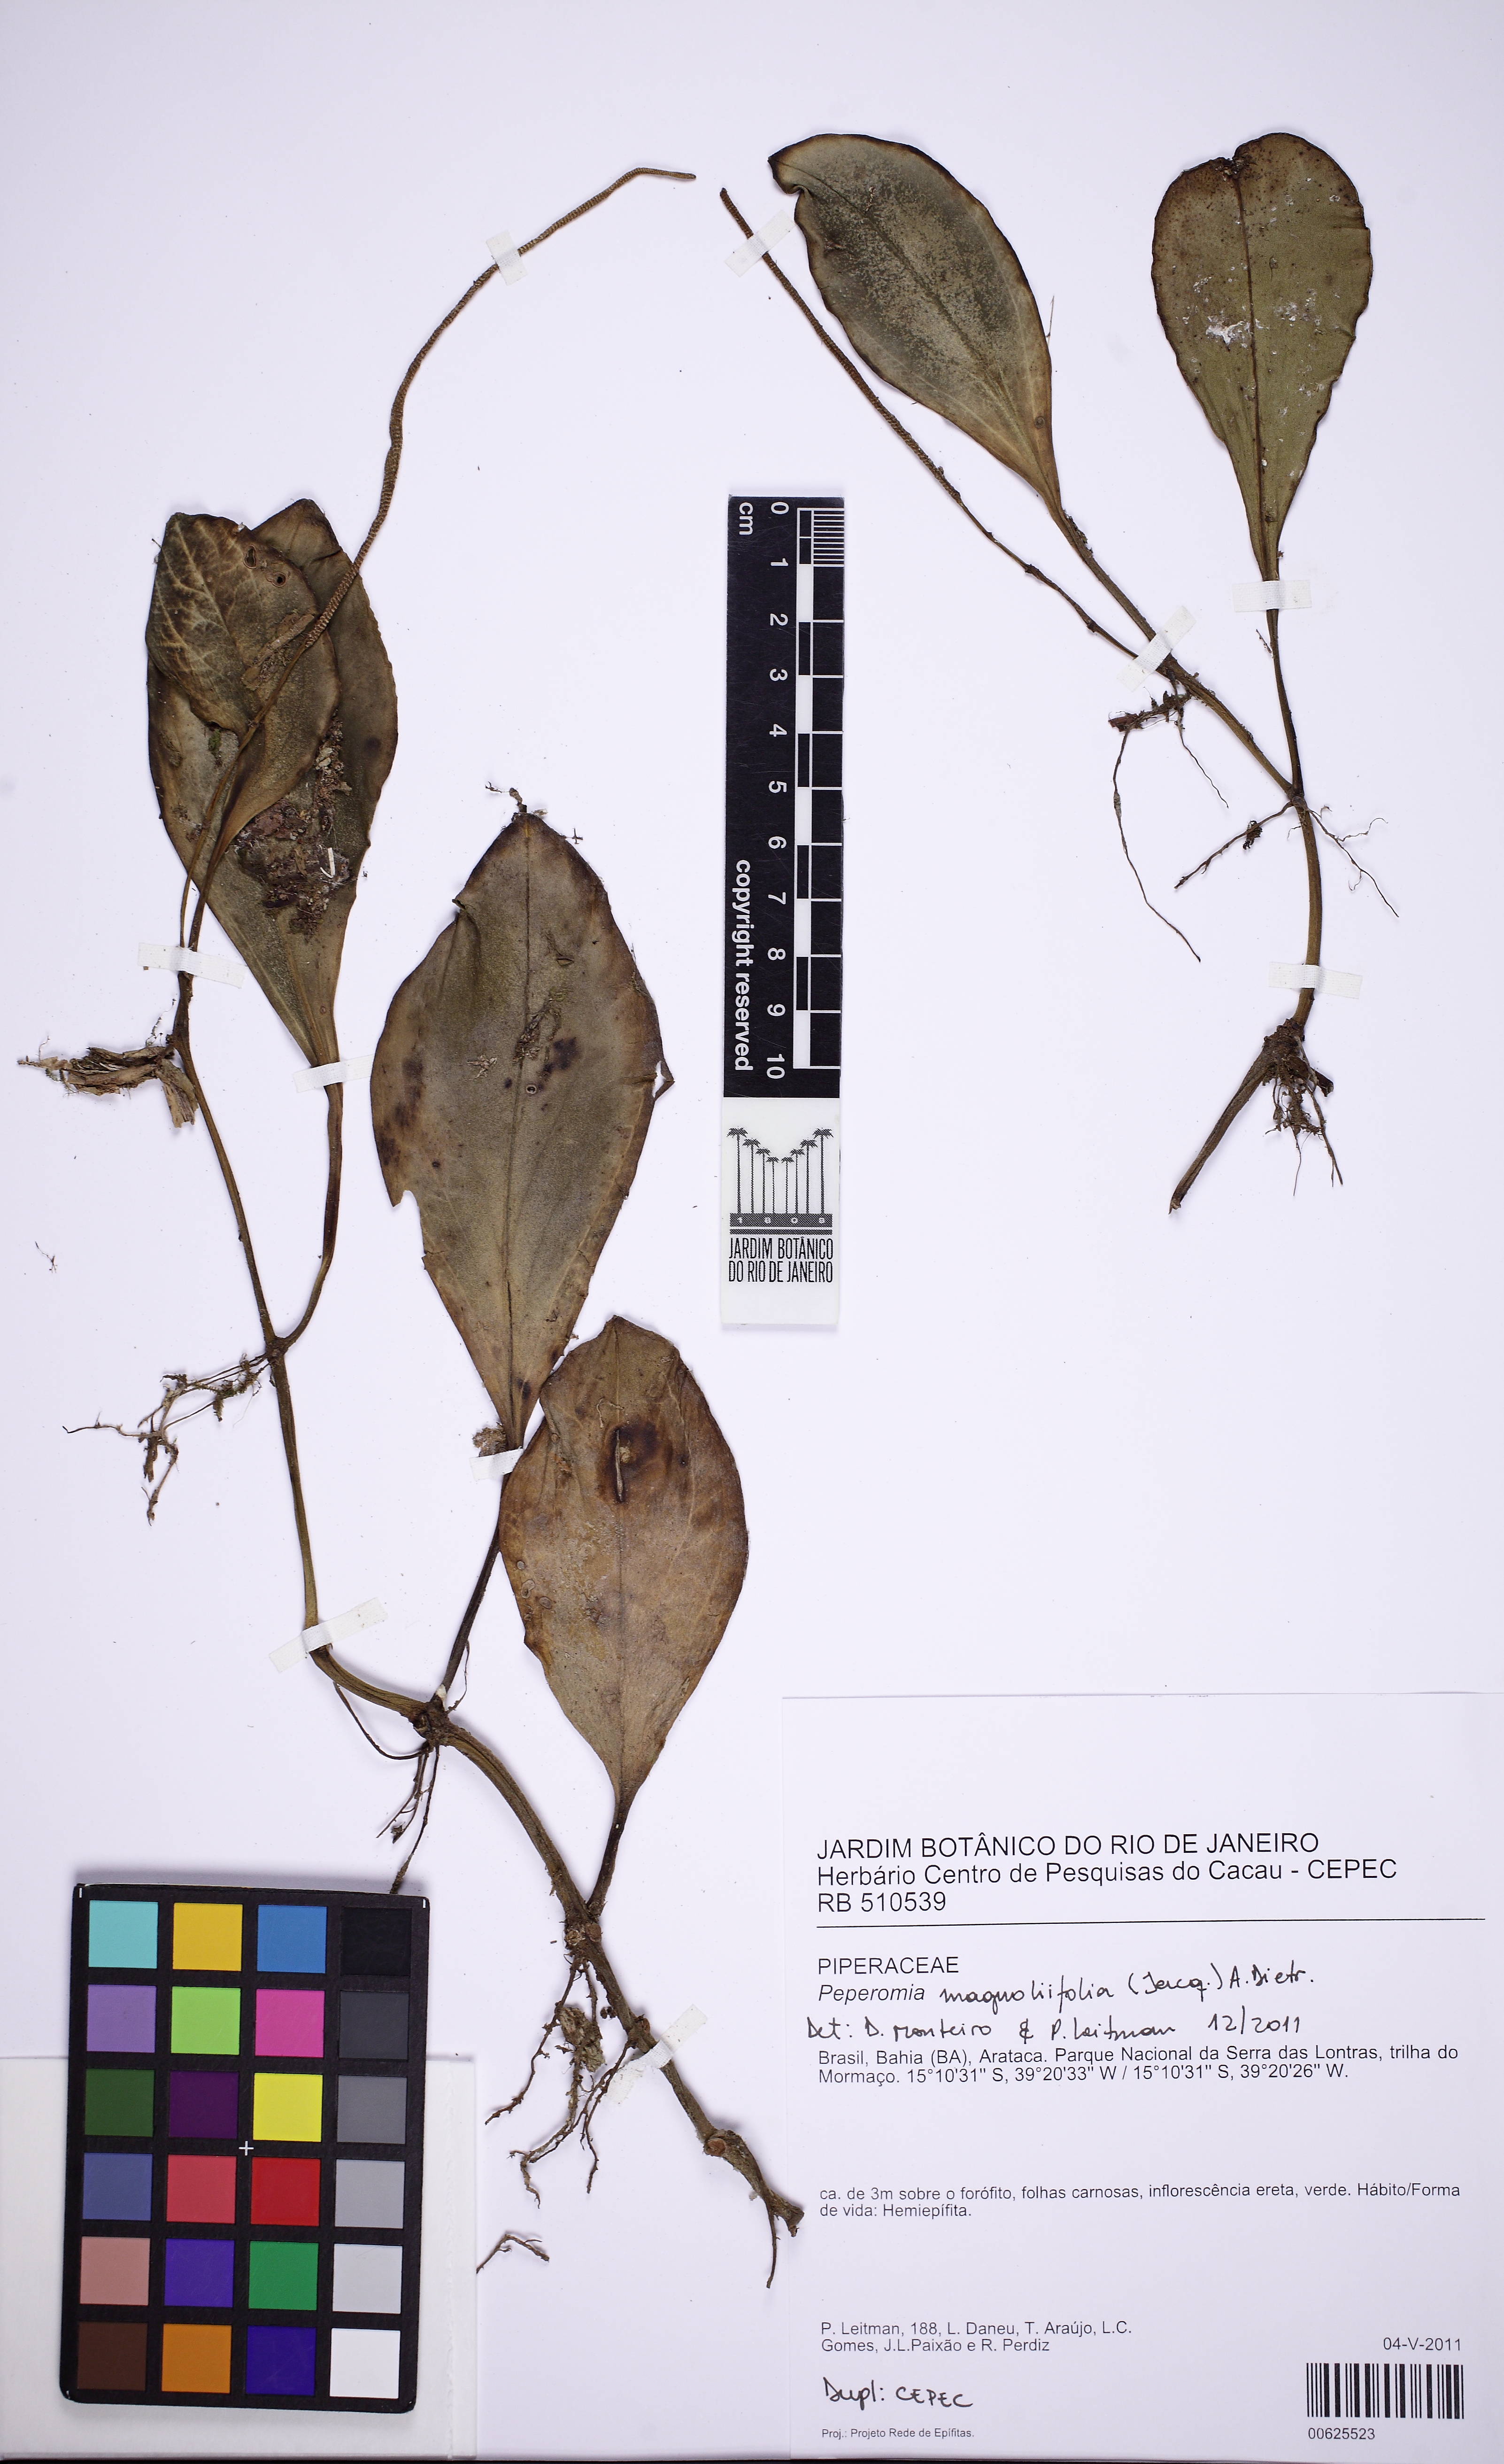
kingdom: Plantae
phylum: Tracheophyta
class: Magnoliopsida
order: Piperales
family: Piperaceae
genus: Peperomia
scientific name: Peperomia magnoliifolia
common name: Spoonleaf peperomia
